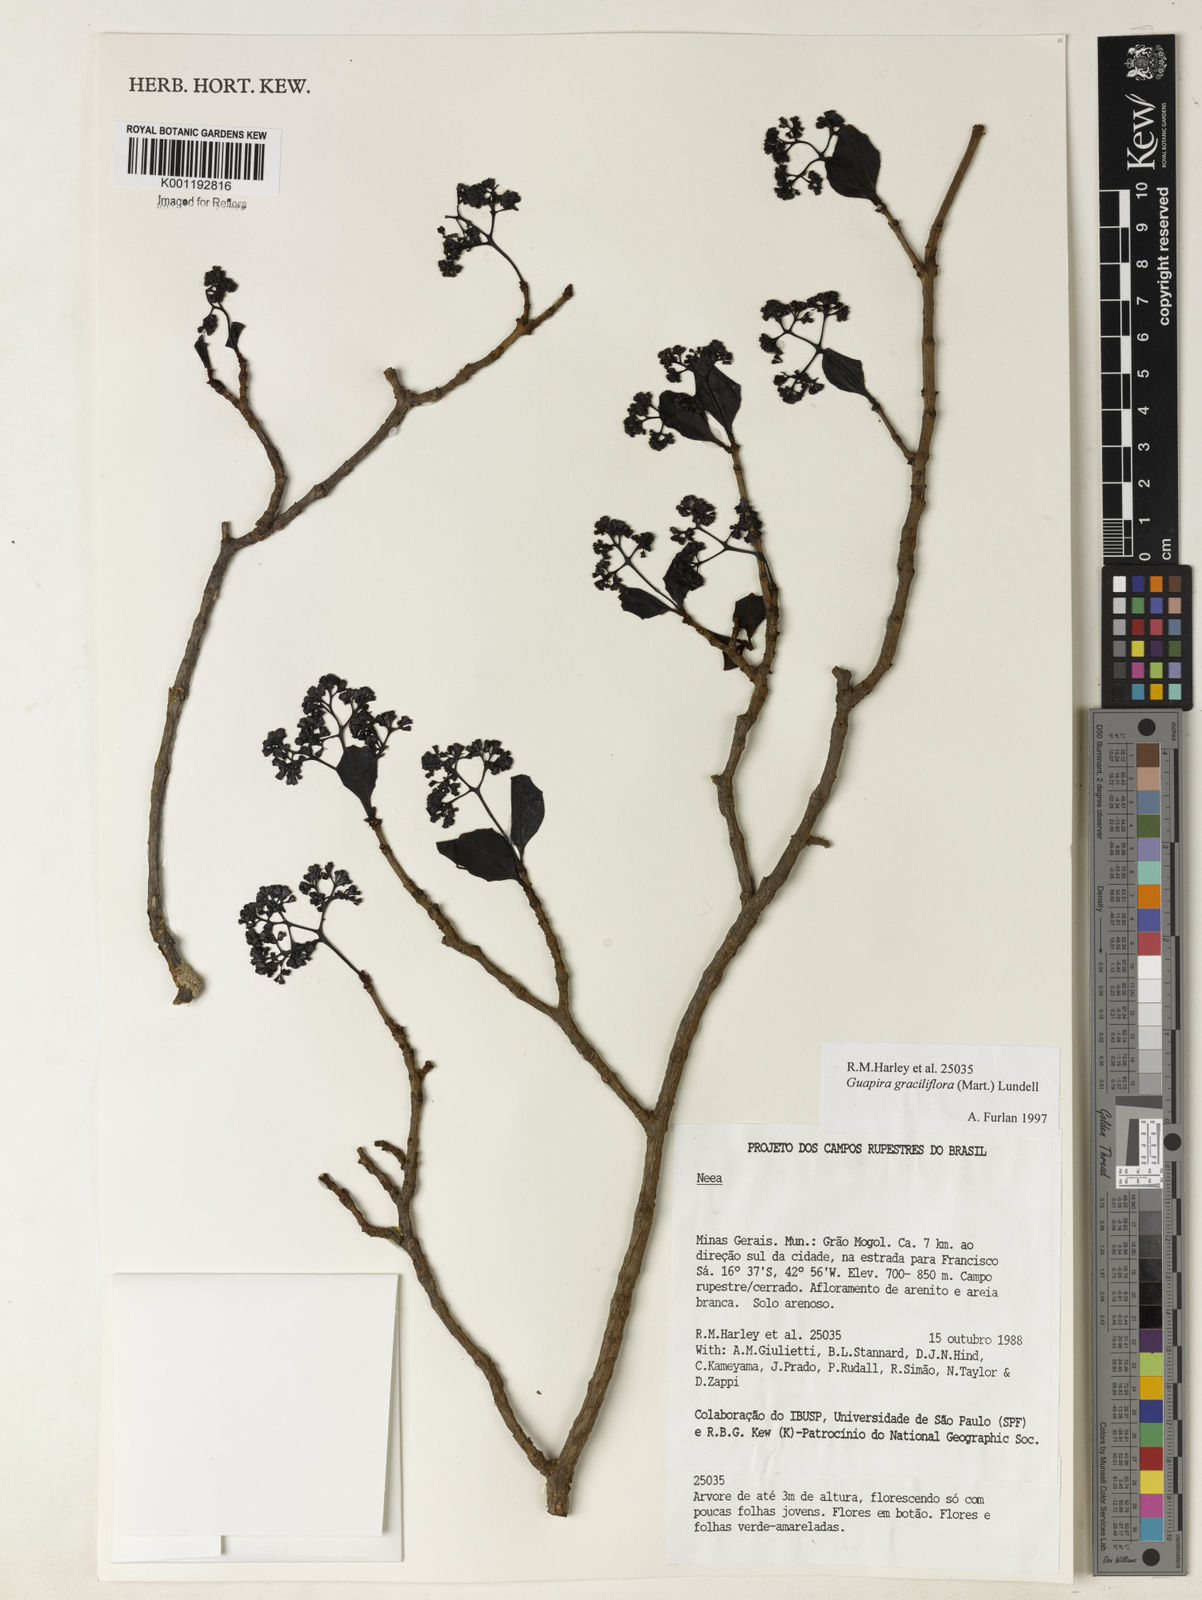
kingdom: Plantae
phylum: Tracheophyta
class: Magnoliopsida
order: Caryophyllales
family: Nyctaginaceae
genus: Guapira
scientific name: Guapira graciliflora
